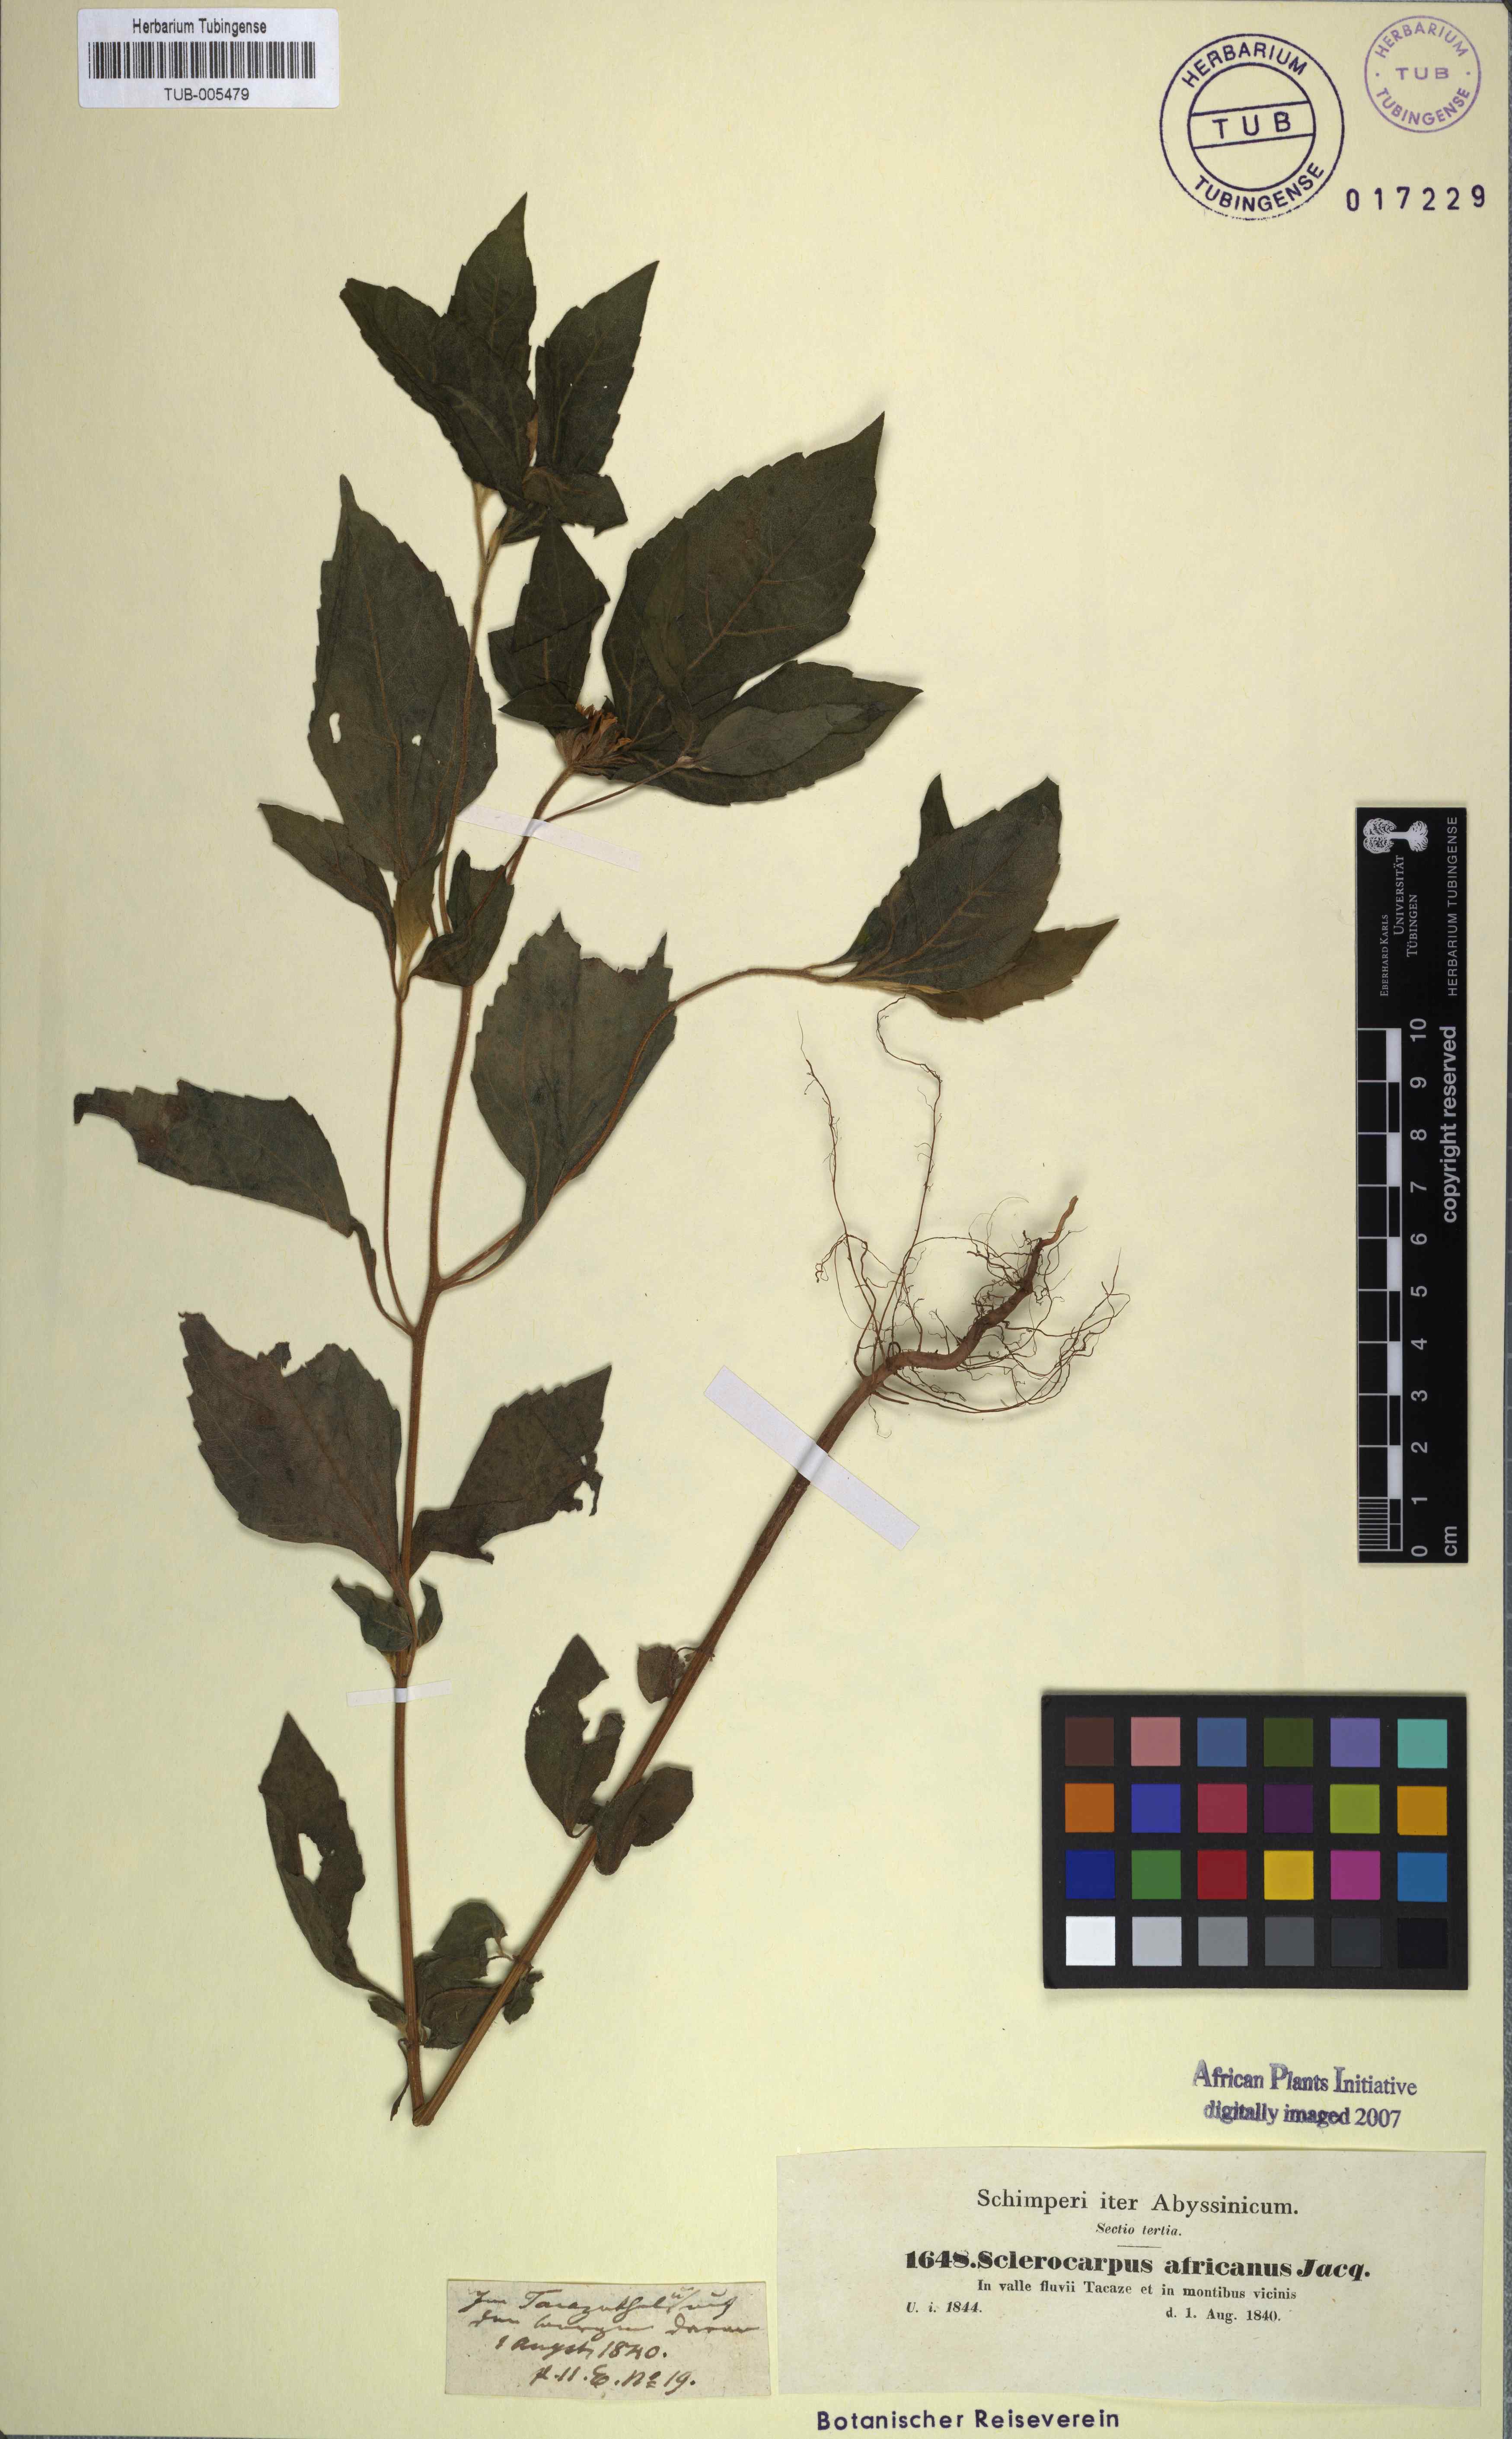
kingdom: Plantae
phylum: Tracheophyta
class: Magnoliopsida
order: Asterales
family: Asteraceae
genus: Sclerocarpus
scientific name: Sclerocarpus africanus
